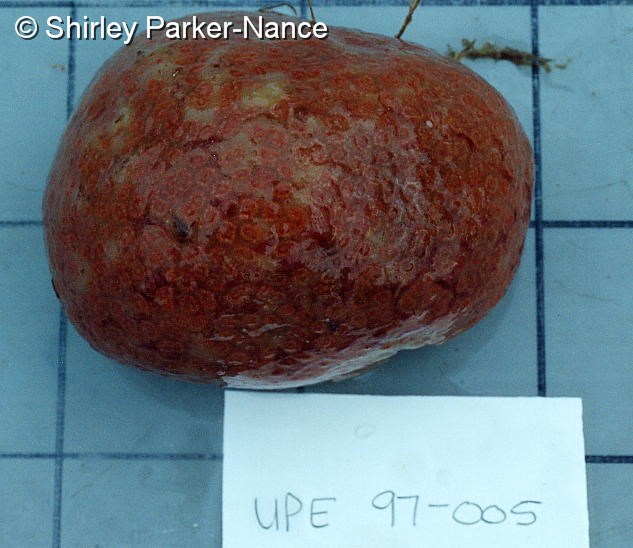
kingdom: Animalia
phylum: Chordata
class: Ascidiacea
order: Aplousobranchia
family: Polyclinidae
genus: Synoicum
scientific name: Synoicum
